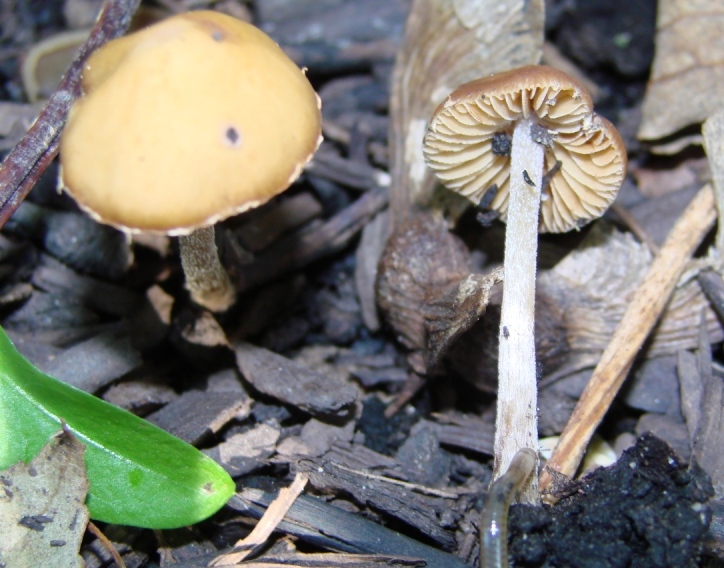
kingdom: Fungi
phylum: Basidiomycota
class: Agaricomycetes
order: Agaricales
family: Bolbitiaceae
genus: Conocybe
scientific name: Conocybe nemoralis
